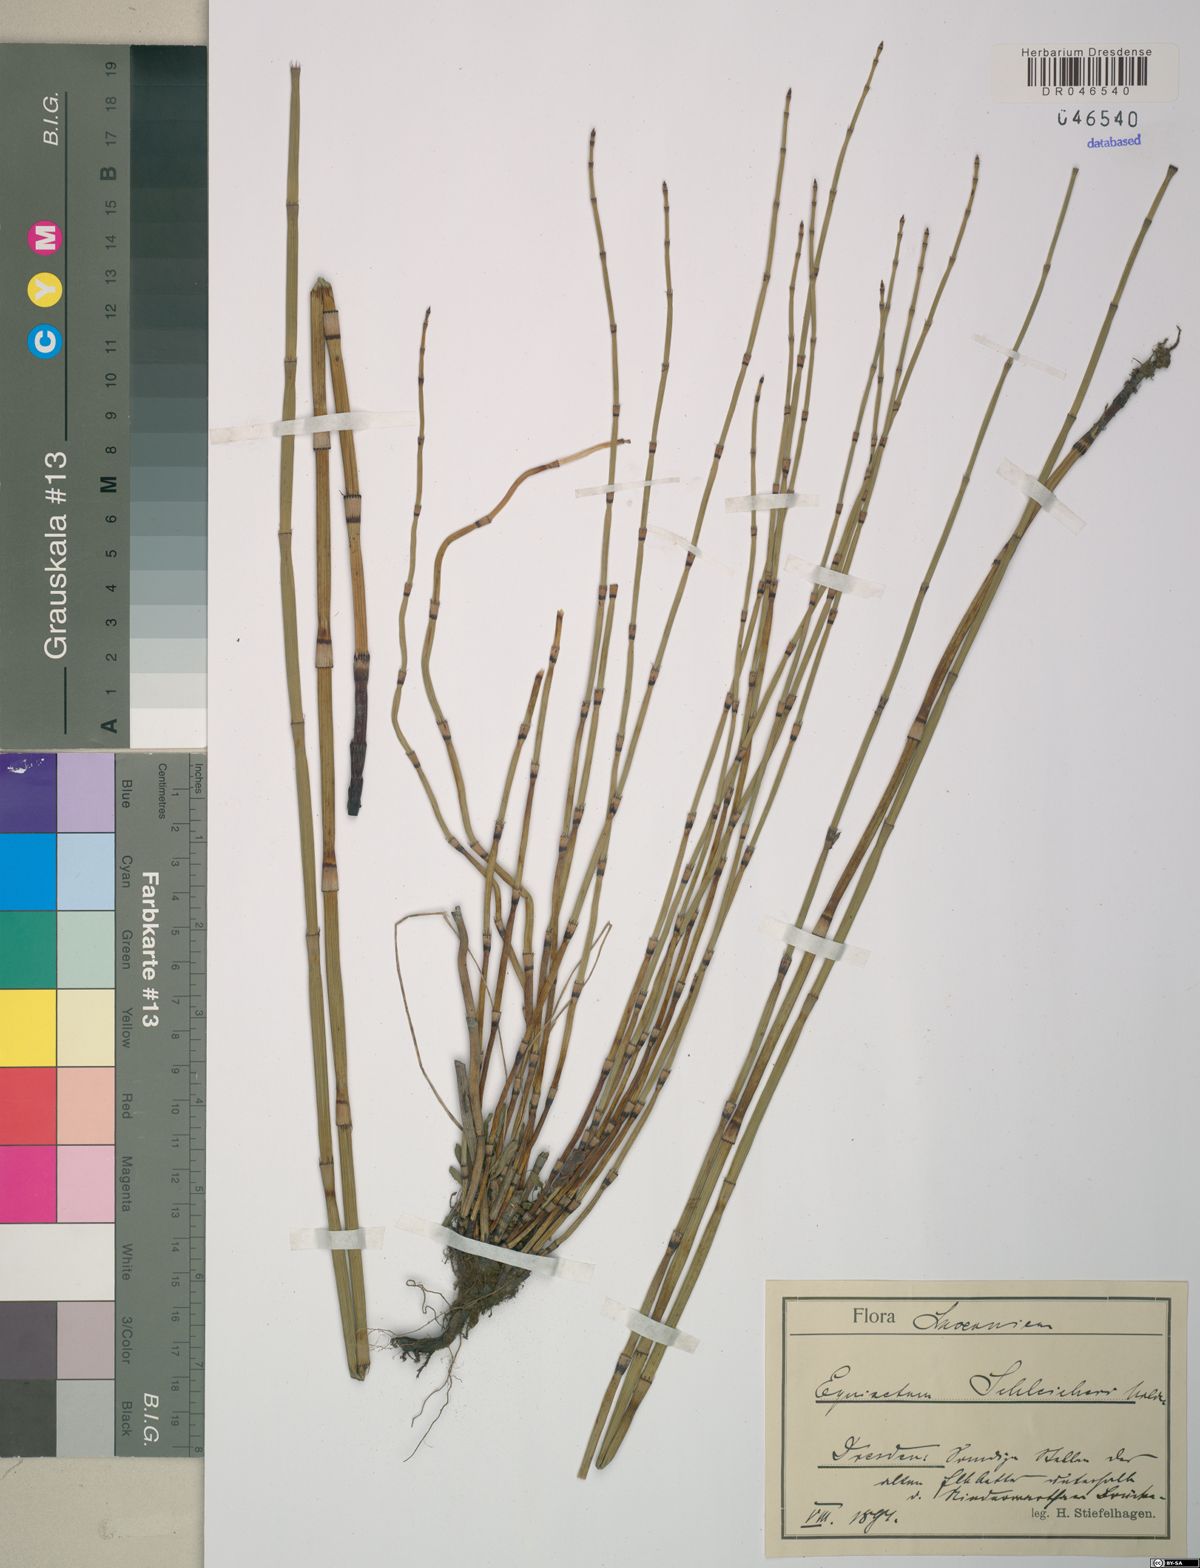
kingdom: Plantae
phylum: Tracheophyta
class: Polypodiopsida
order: Equisetales
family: Equisetaceae
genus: Equisetum
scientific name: Equisetum moorei
